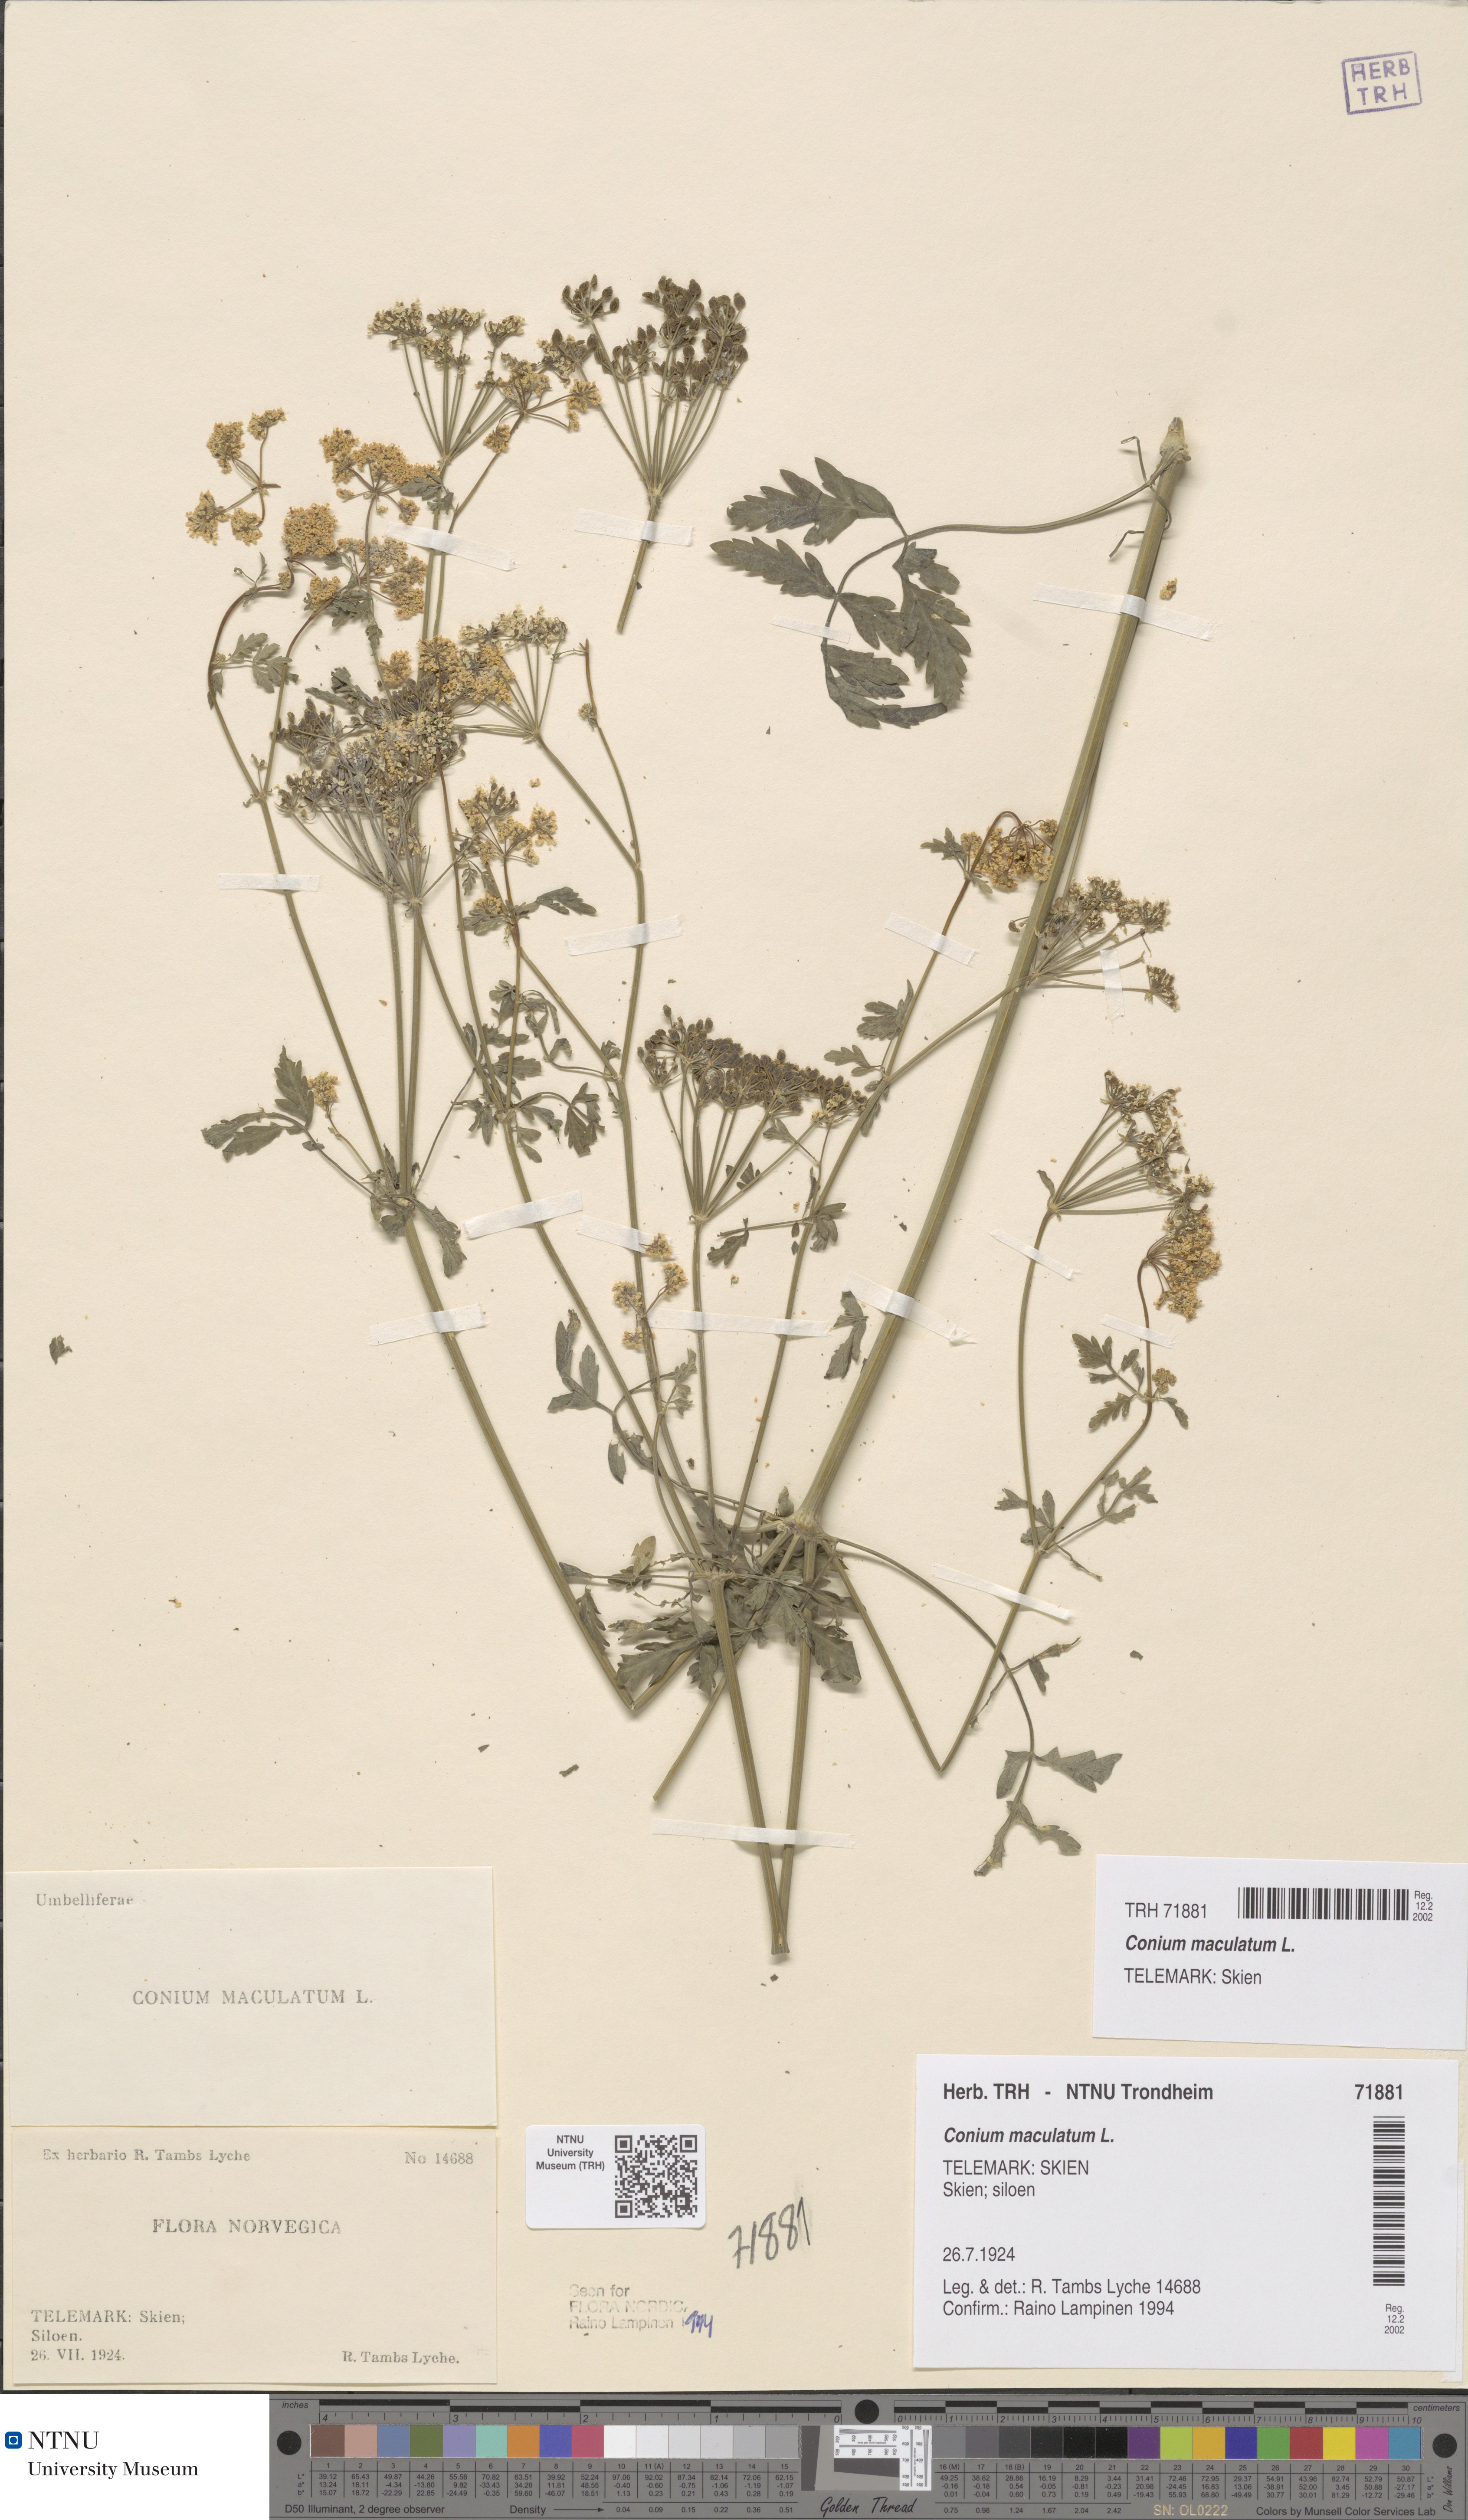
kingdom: Plantae
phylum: Tracheophyta
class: Magnoliopsida
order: Apiales
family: Apiaceae
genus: Conium
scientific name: Conium maculatum
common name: Hemlock
